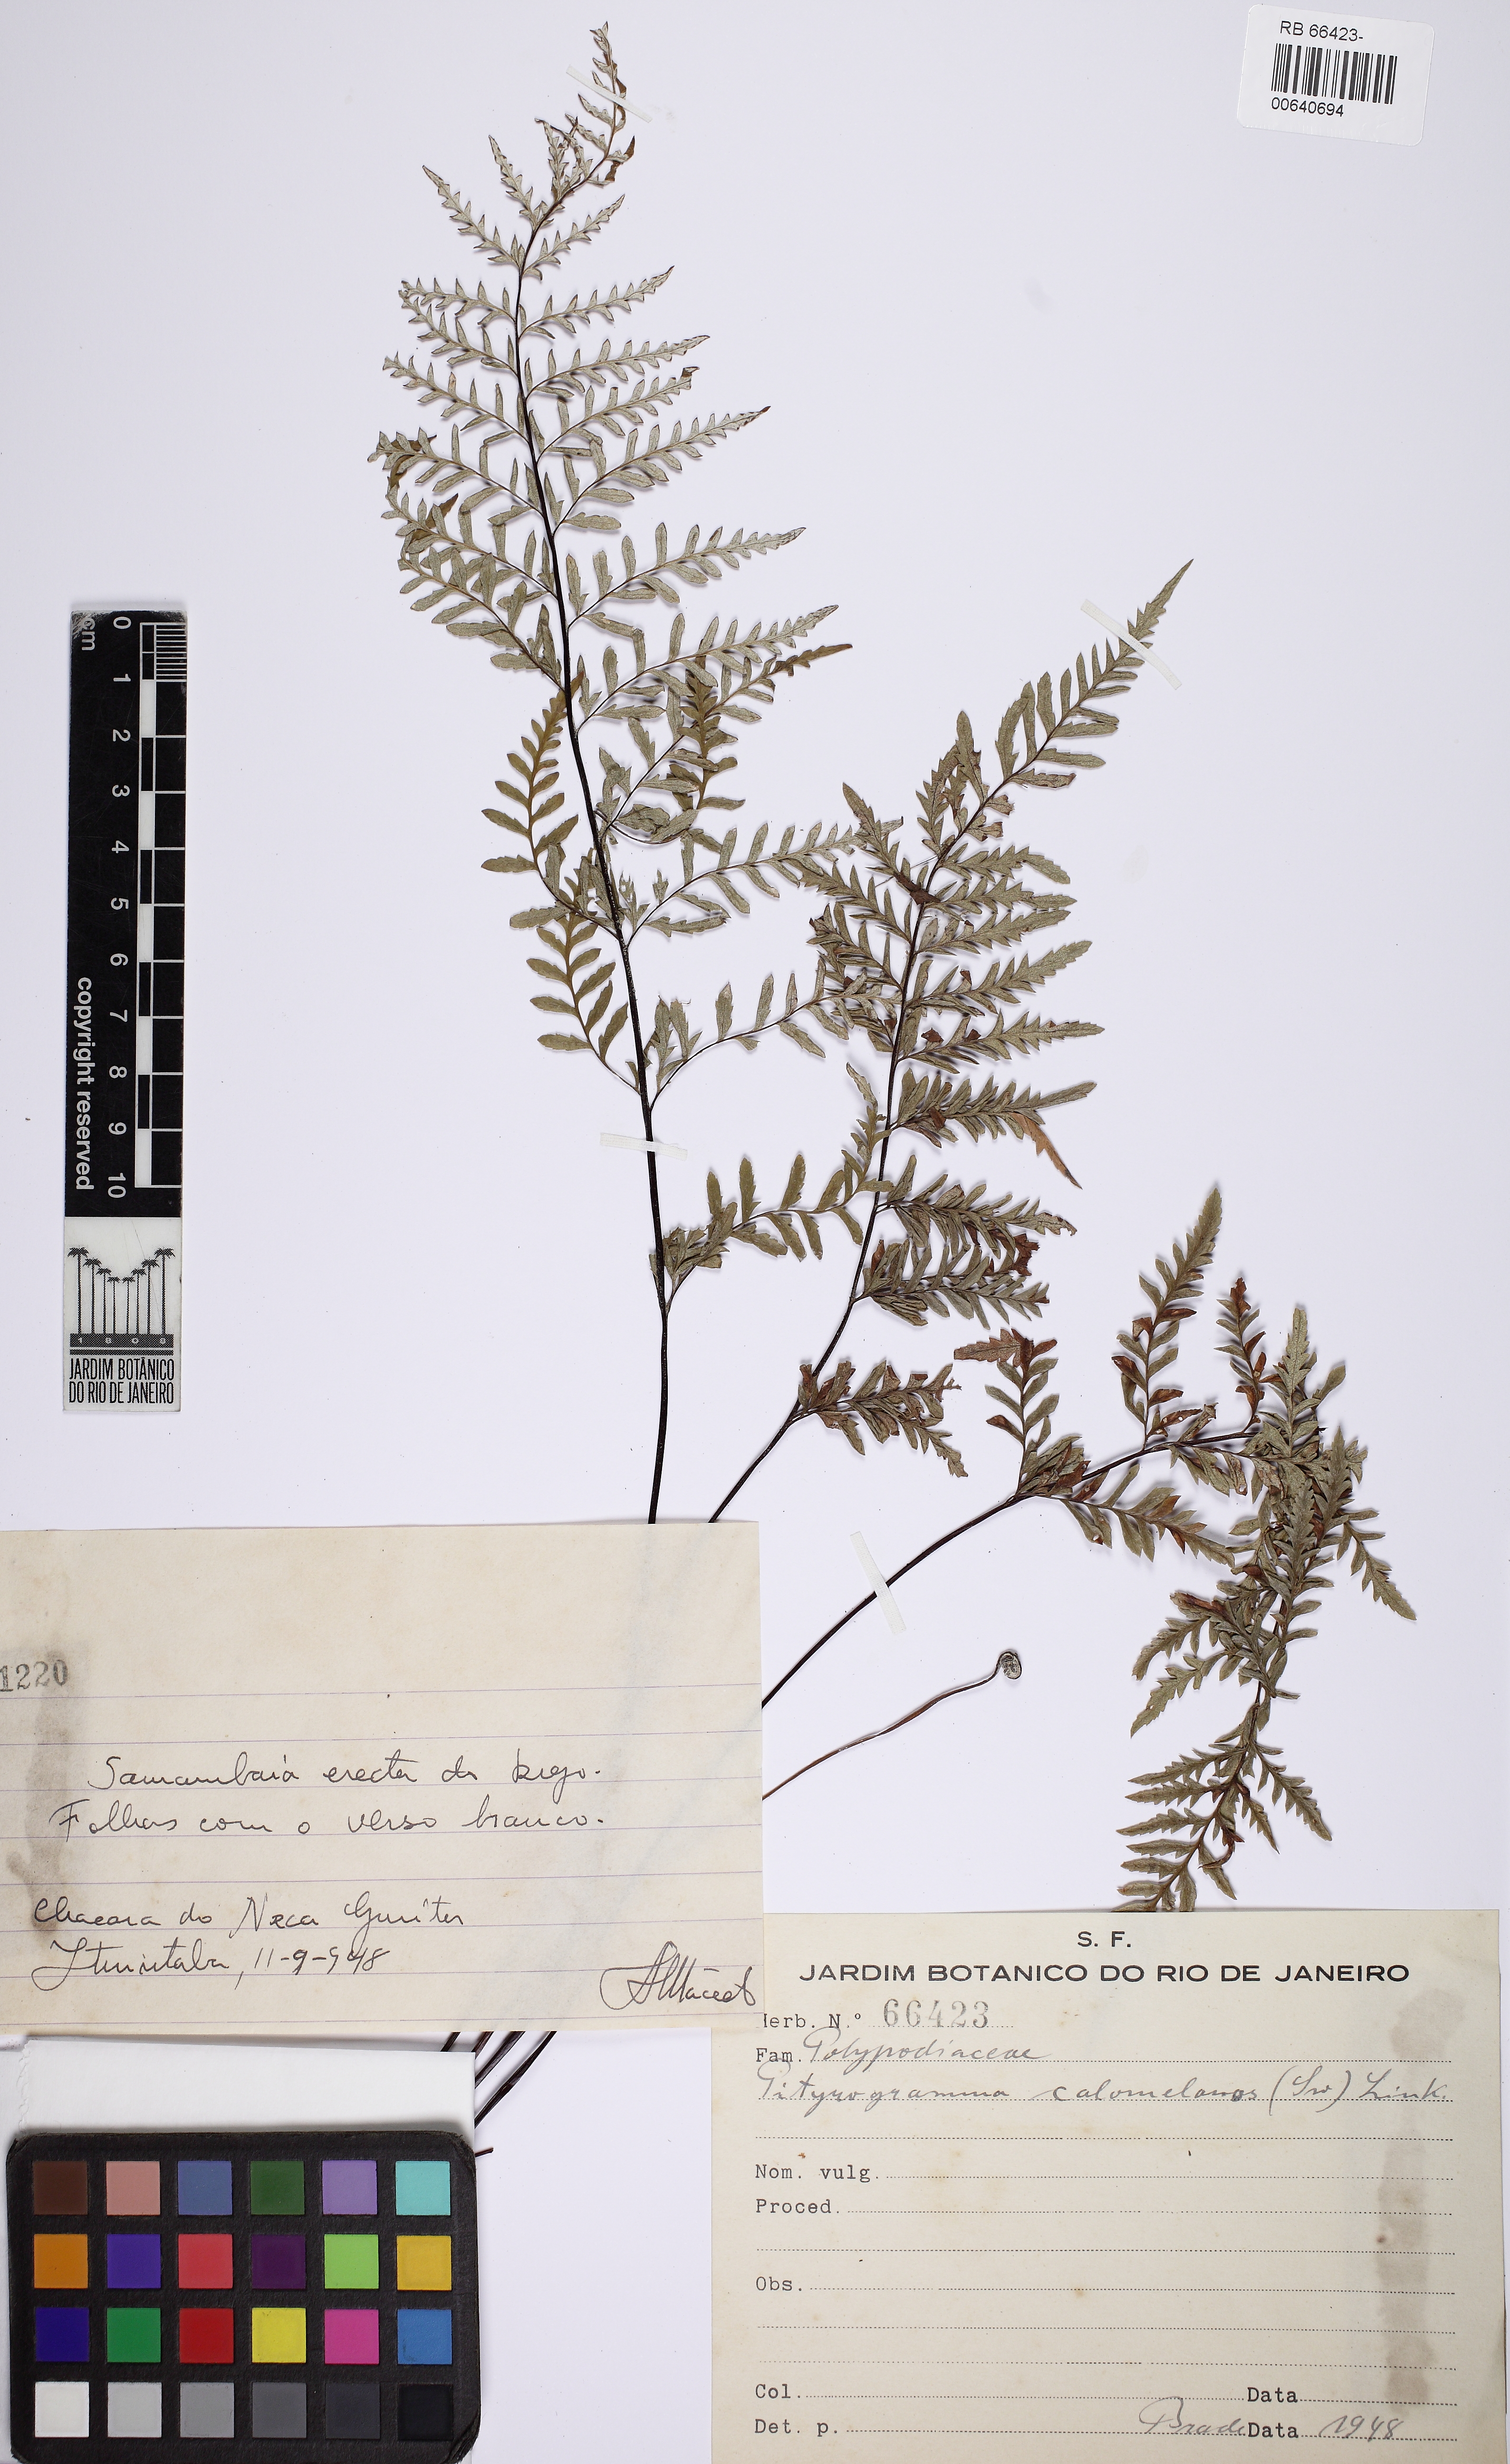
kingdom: Plantae
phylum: Tracheophyta
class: Polypodiopsida
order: Polypodiales
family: Pteridaceae
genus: Pityrogramma
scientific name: Pityrogramma calomelanos
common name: Dixie silverback fern
